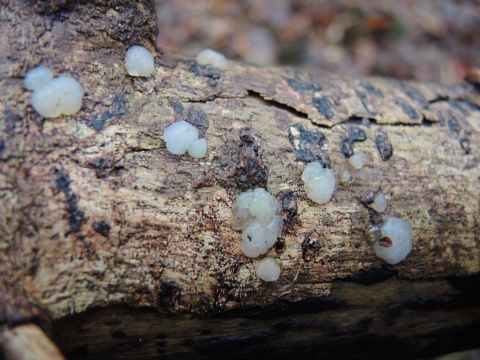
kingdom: Fungi
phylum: Basidiomycota
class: Agaricomycetes
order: Auriculariales
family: Hyaloriaceae
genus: Myxarium
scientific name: Myxarium nucleatum
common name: klar bævretop
